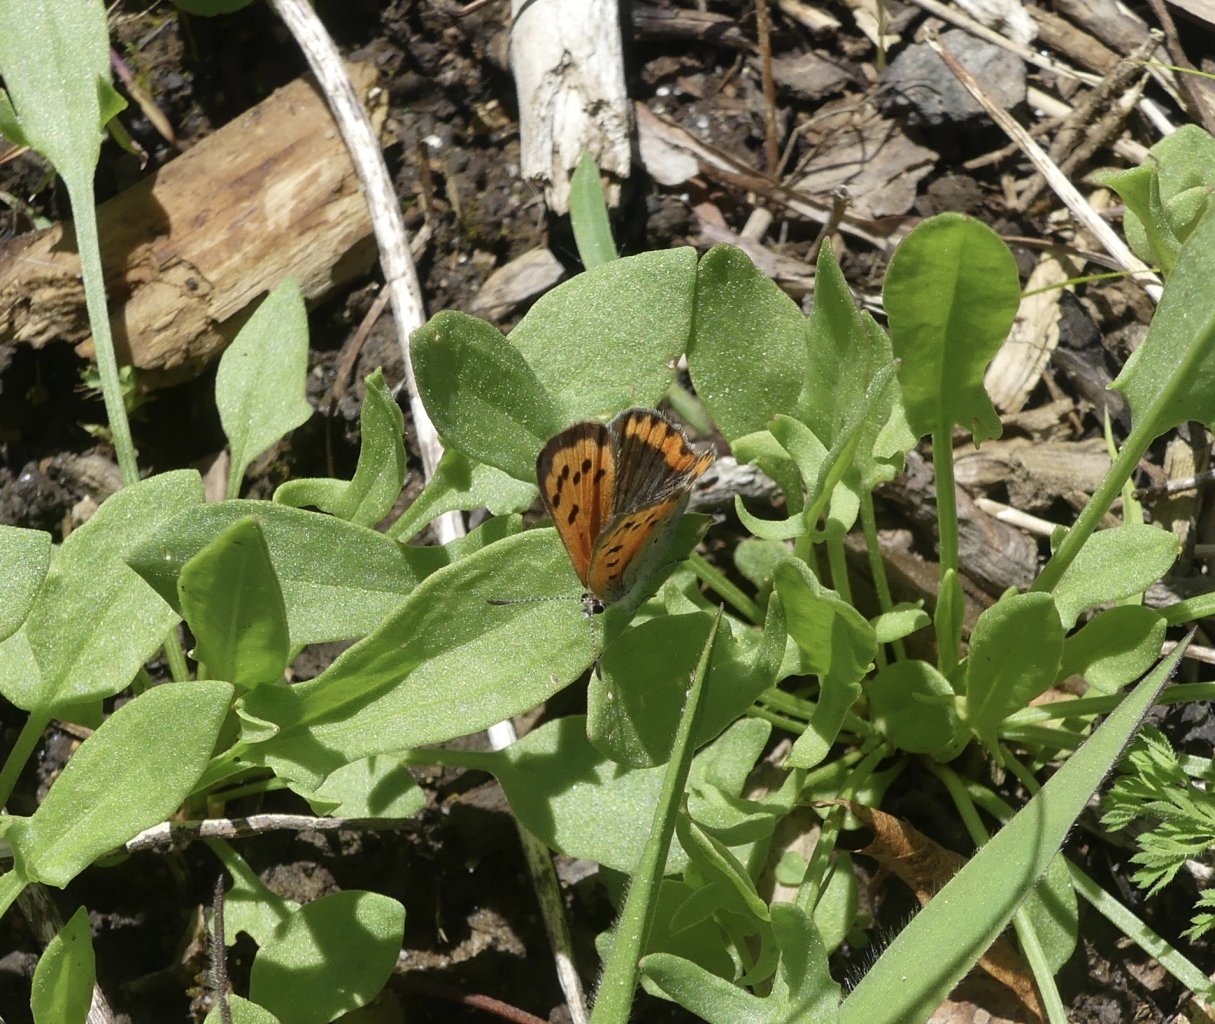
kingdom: Animalia
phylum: Arthropoda
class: Insecta
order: Lepidoptera
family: Lycaenidae
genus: Lycaena
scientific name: Lycaena phlaeas
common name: American Copper
